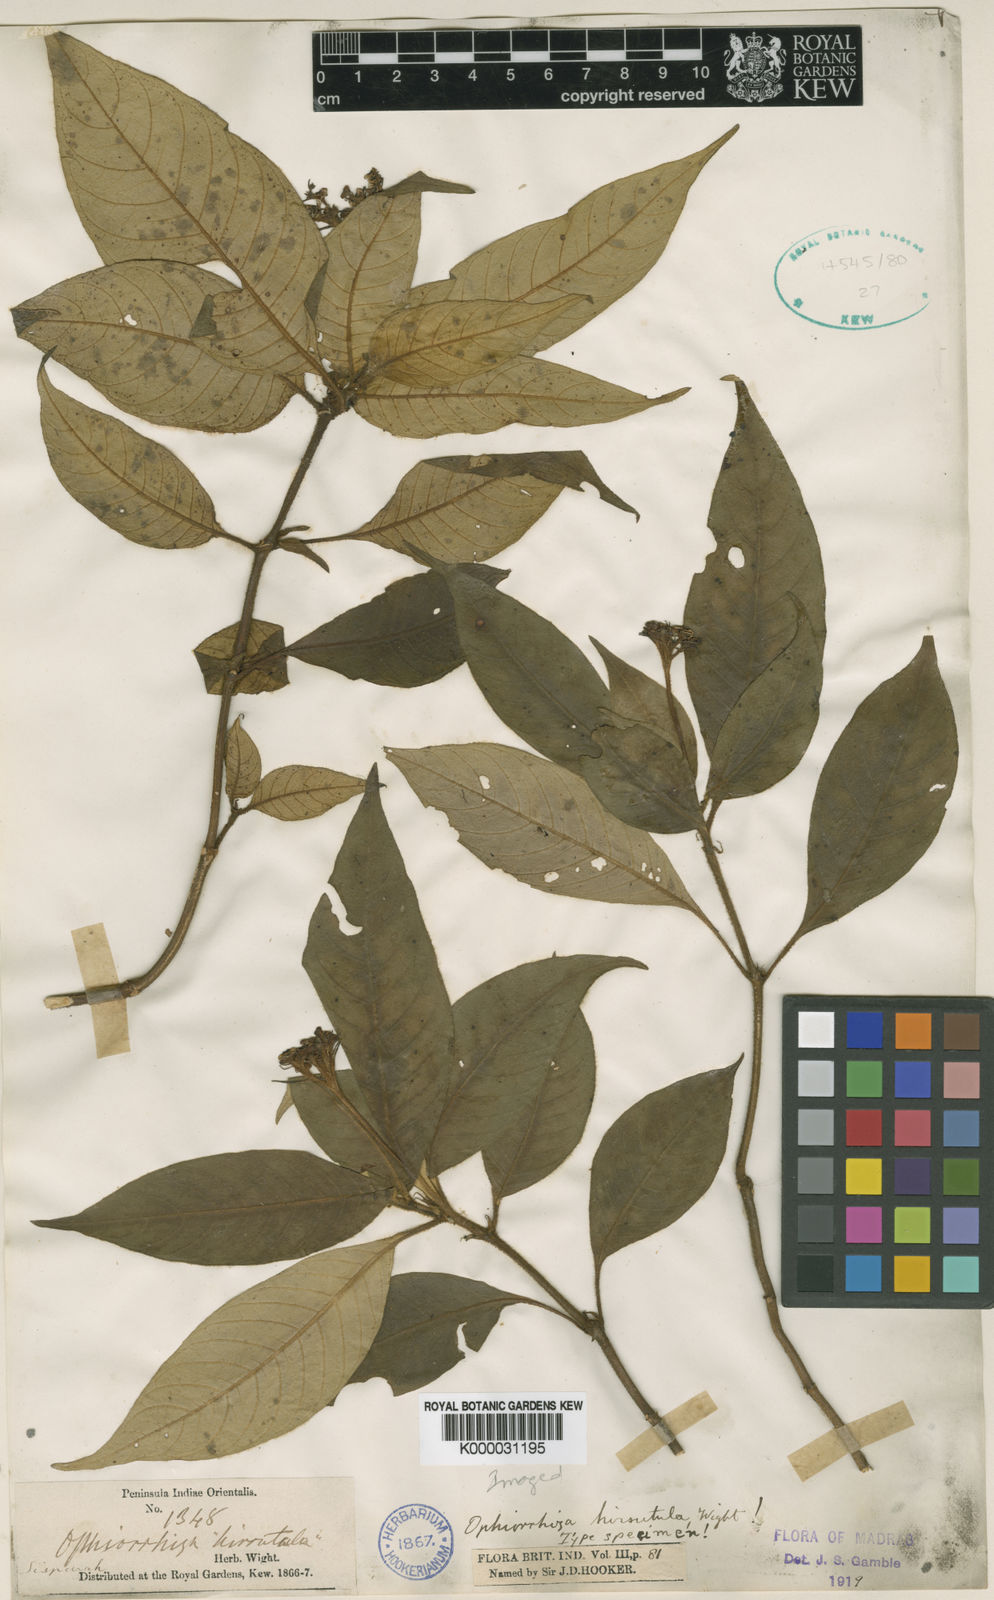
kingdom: Plantae
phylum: Tracheophyta
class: Magnoliopsida
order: Gentianales
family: Rubiaceae
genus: Ophiorrhiza
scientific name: Ophiorrhiza
